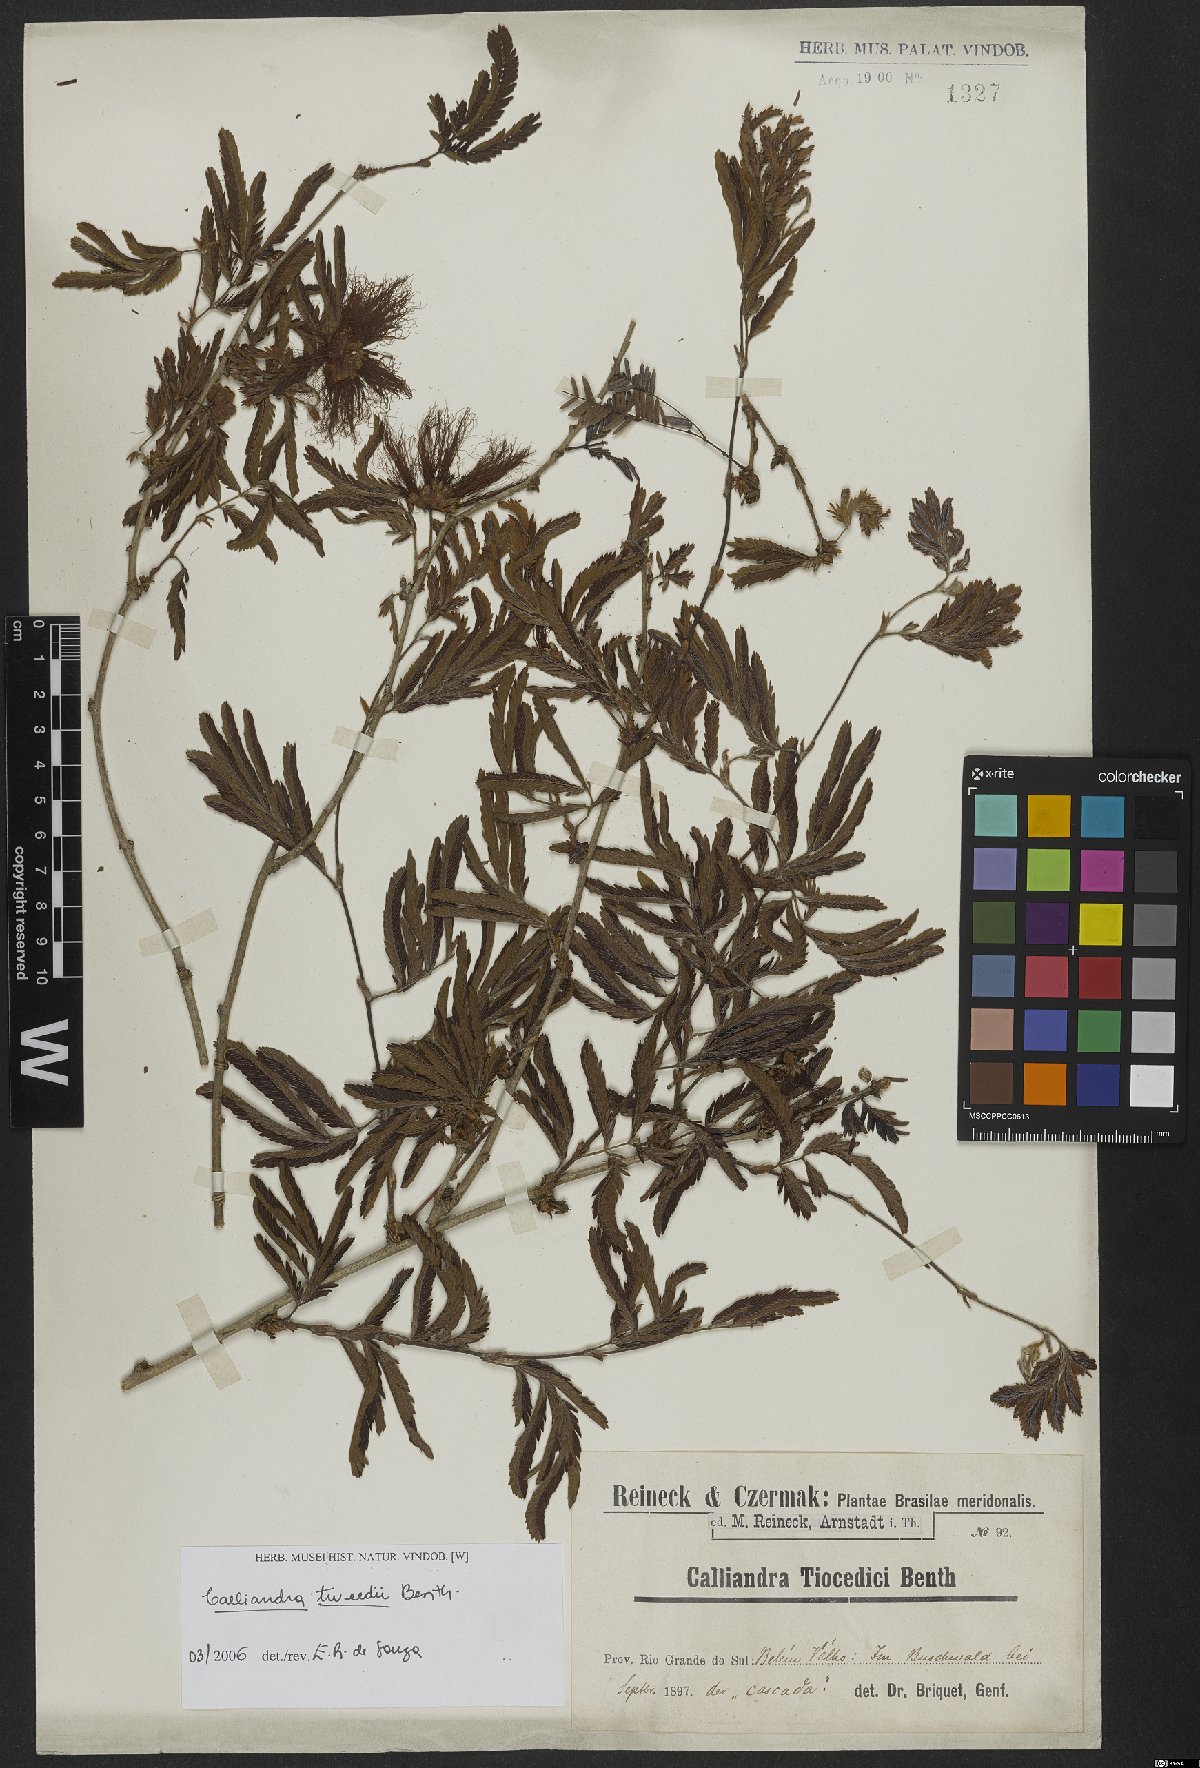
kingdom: Plantae
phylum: Tracheophyta
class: Magnoliopsida
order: Fabales
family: Fabaceae
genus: Calliandra
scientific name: Calliandra tweedii
